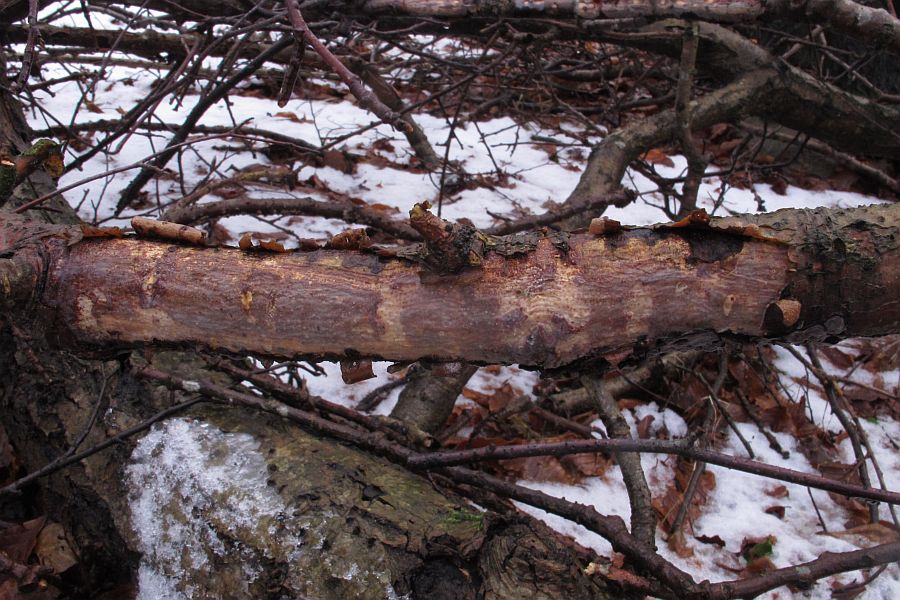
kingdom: Fungi
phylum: Basidiomycota
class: Agaricomycetes
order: Corticiales
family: Vuilleminiaceae
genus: Vuilleminia
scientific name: Vuilleminia comedens
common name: almindelig barksprænger
